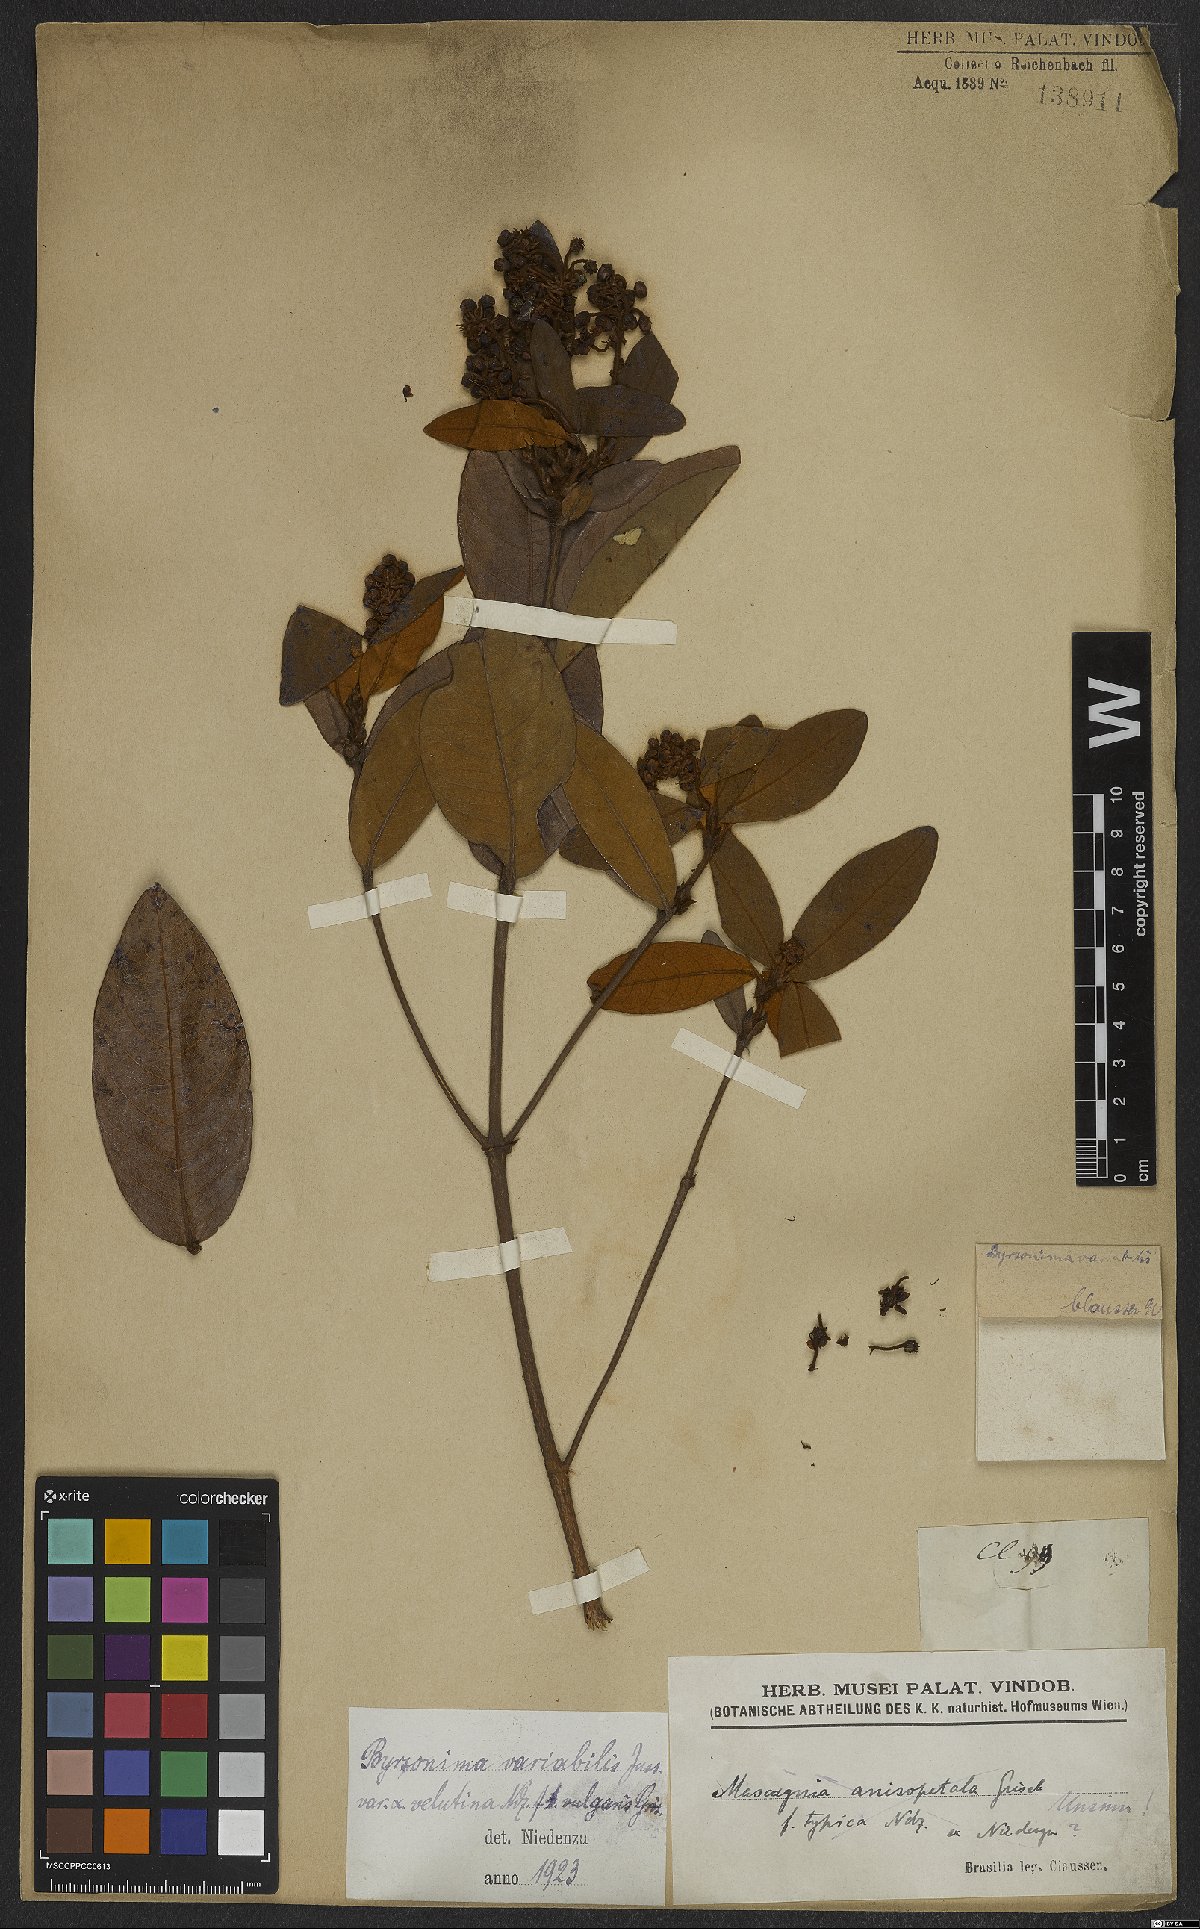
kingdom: Plantae
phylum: Tracheophyta
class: Magnoliopsida
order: Malpighiales
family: Malpighiaceae
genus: Byrsonima
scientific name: Byrsonima variabilis
